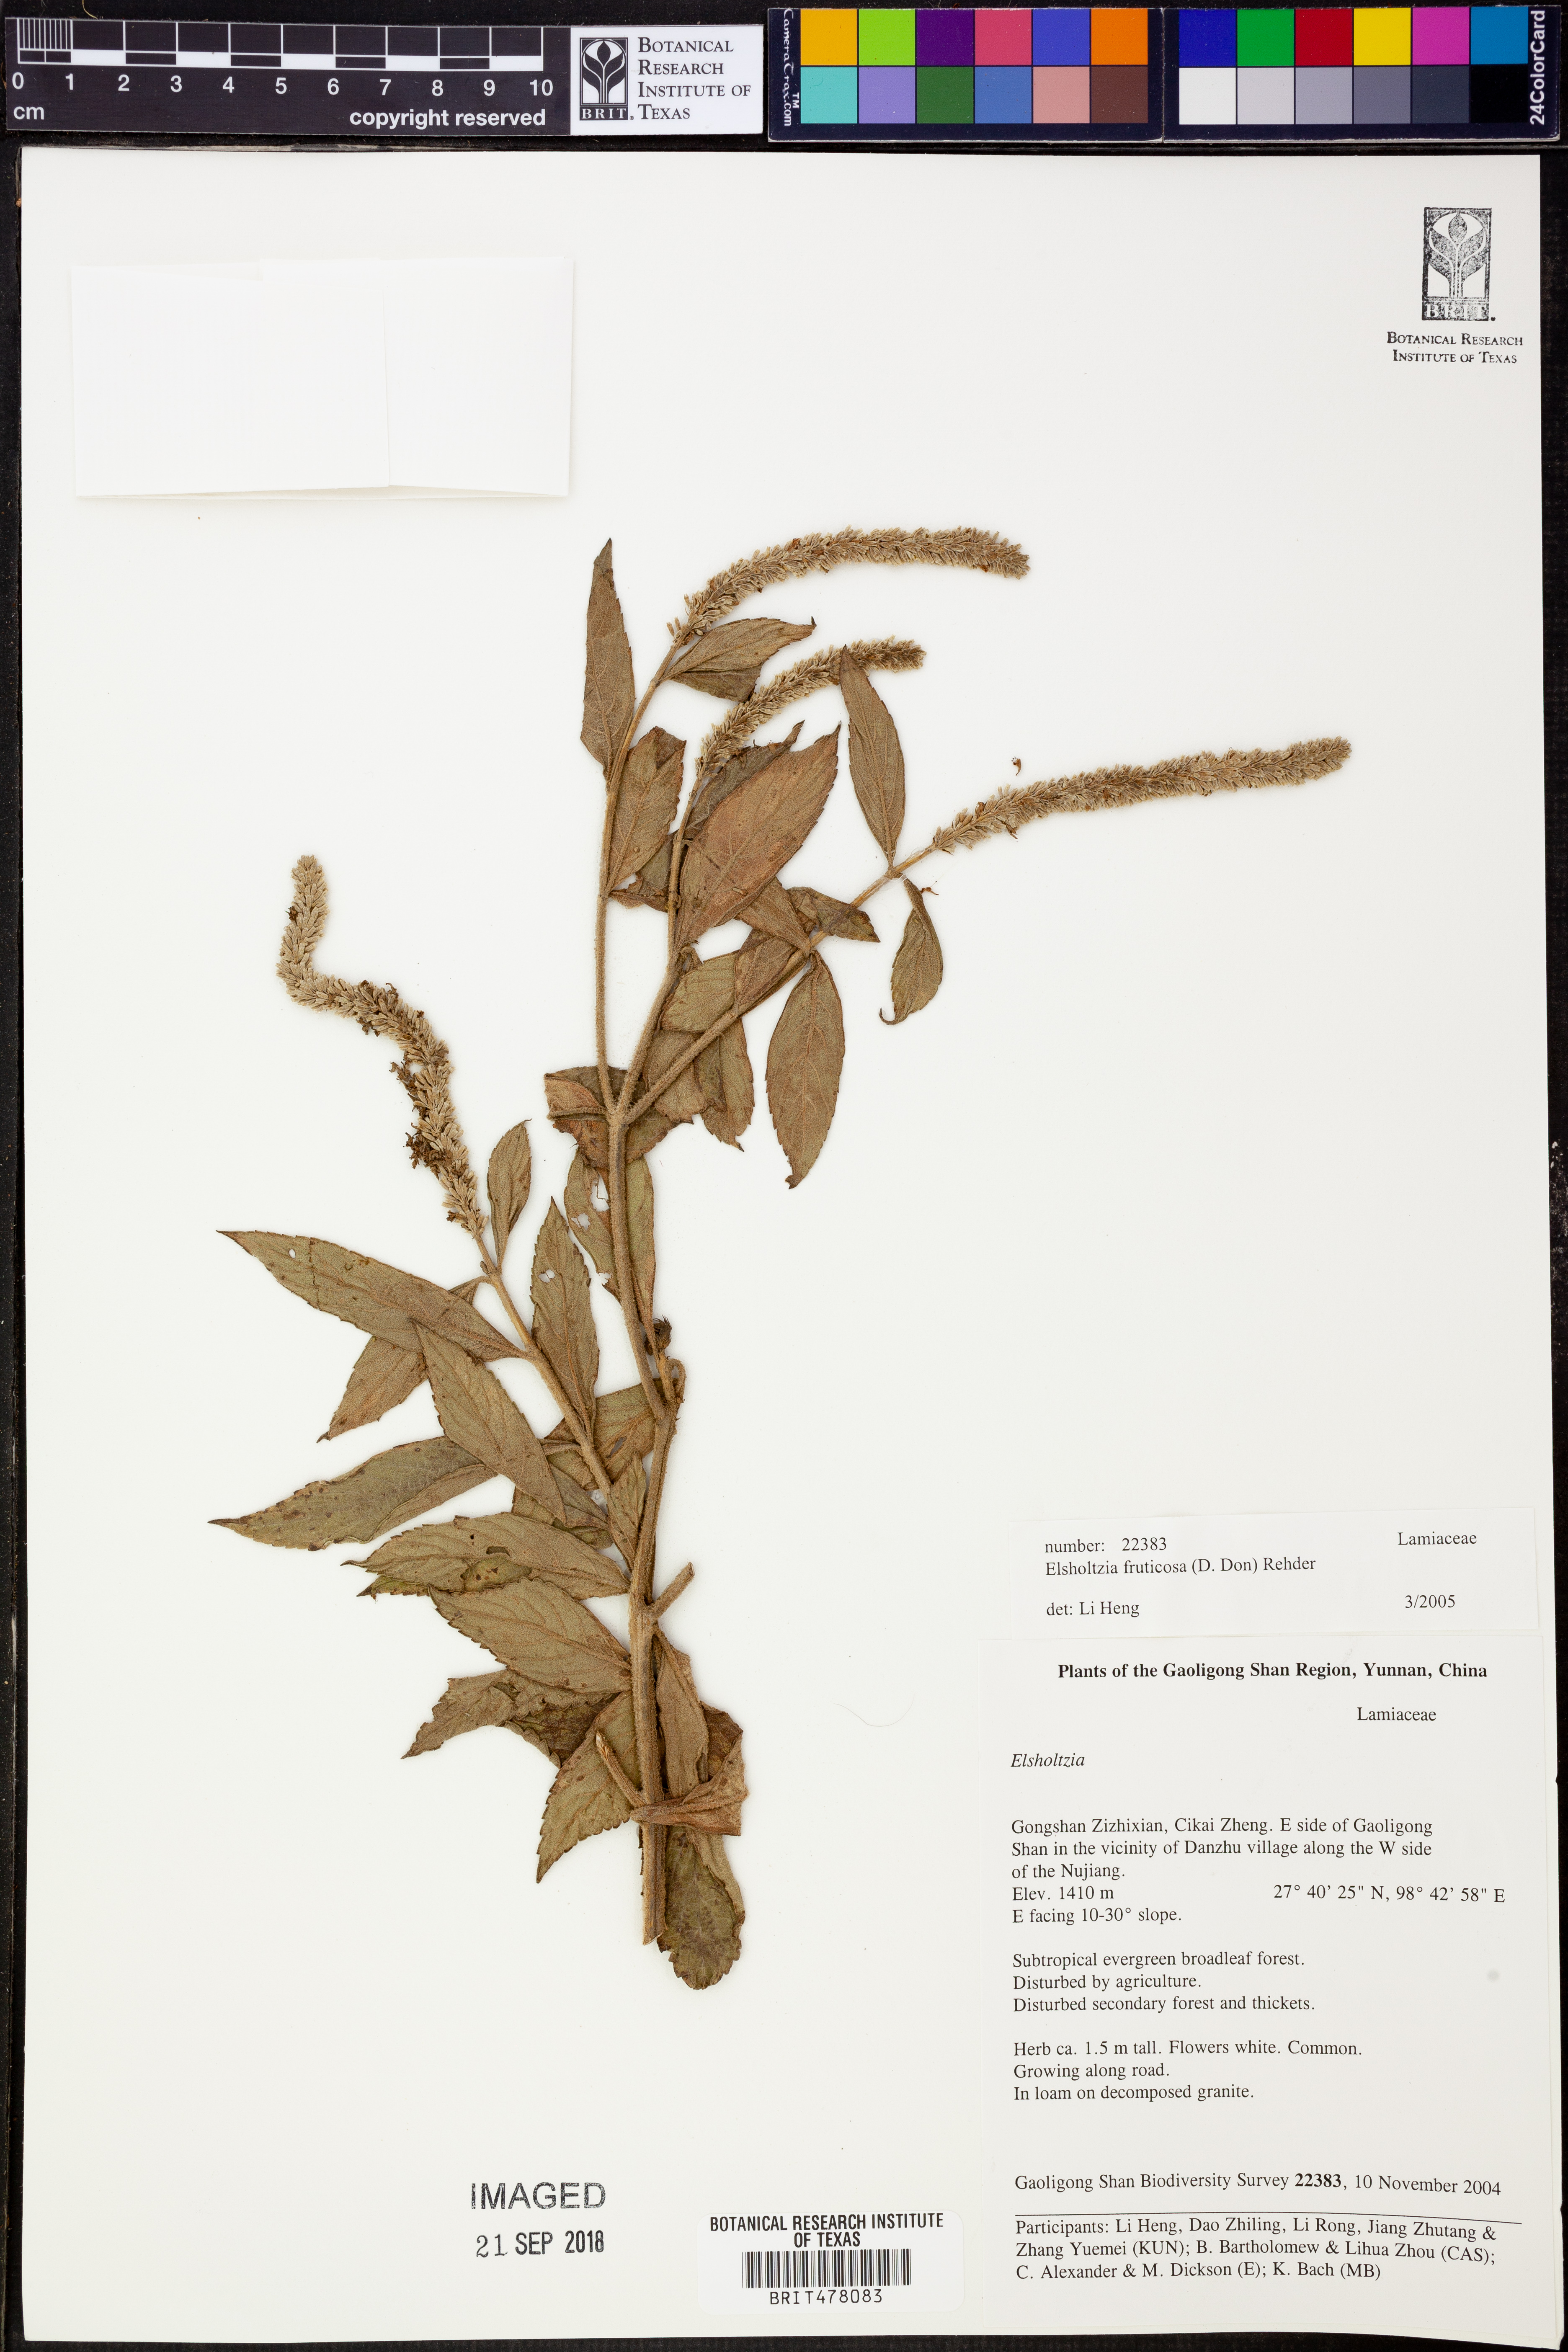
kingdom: Plantae
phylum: Tracheophyta
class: Magnoliopsida
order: Lamiales
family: Lamiaceae
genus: Elsholtzia
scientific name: Elsholtzia fruticosa
